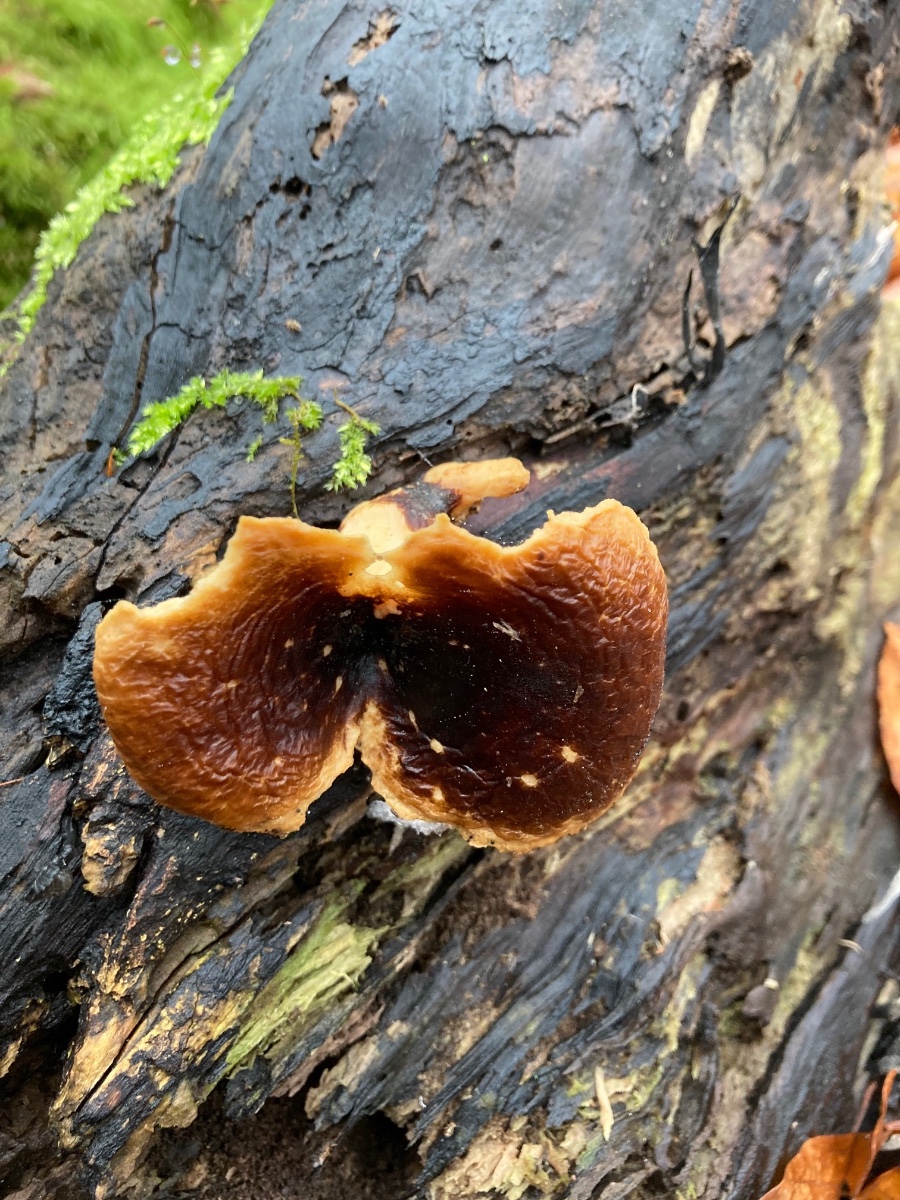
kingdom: Fungi
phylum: Basidiomycota
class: Agaricomycetes
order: Polyporales
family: Polyporaceae
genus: Picipes
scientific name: Picipes badius
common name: kastaniebrun stilkporesvamp
